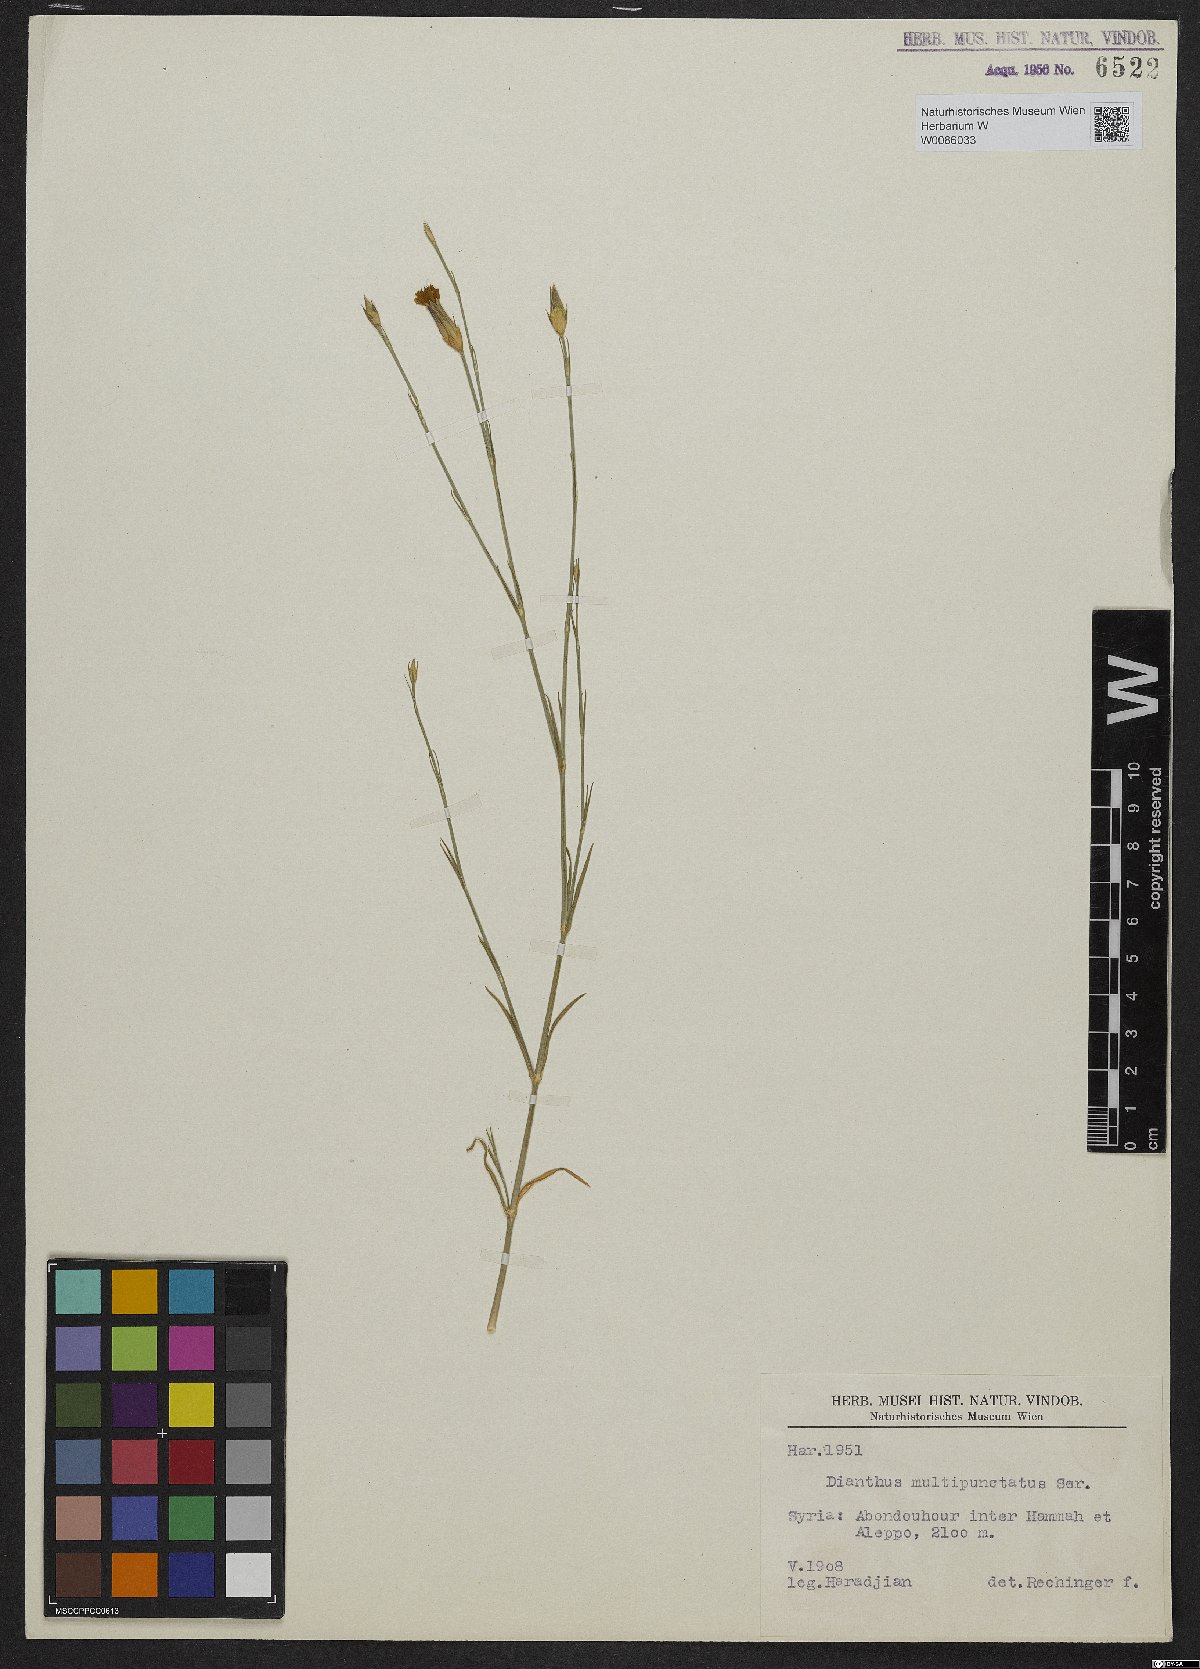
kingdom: Plantae
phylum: Tracheophyta
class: Magnoliopsida
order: Caryophyllales
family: Caryophyllaceae
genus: Dianthus
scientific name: Dianthus strictus
